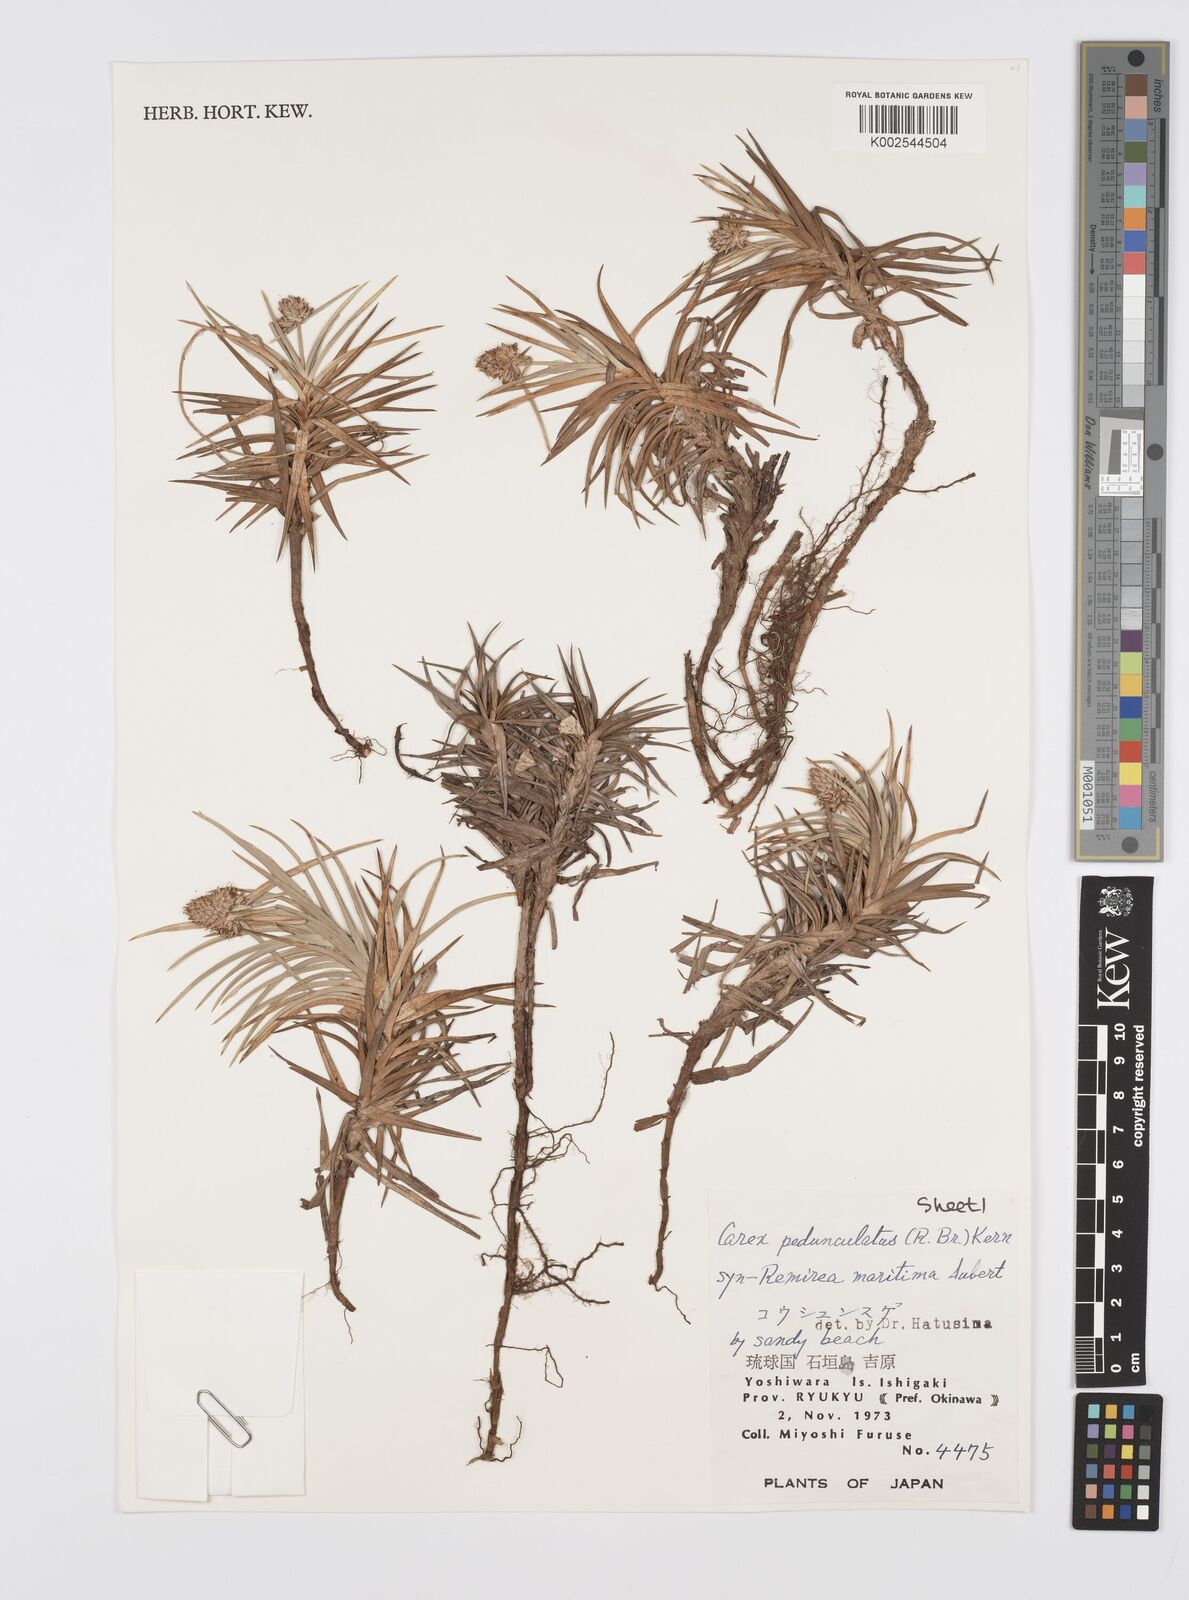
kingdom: Plantae
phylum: Tracheophyta
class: Liliopsida
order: Poales
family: Cyperaceae
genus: Cyperus
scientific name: Cyperus
